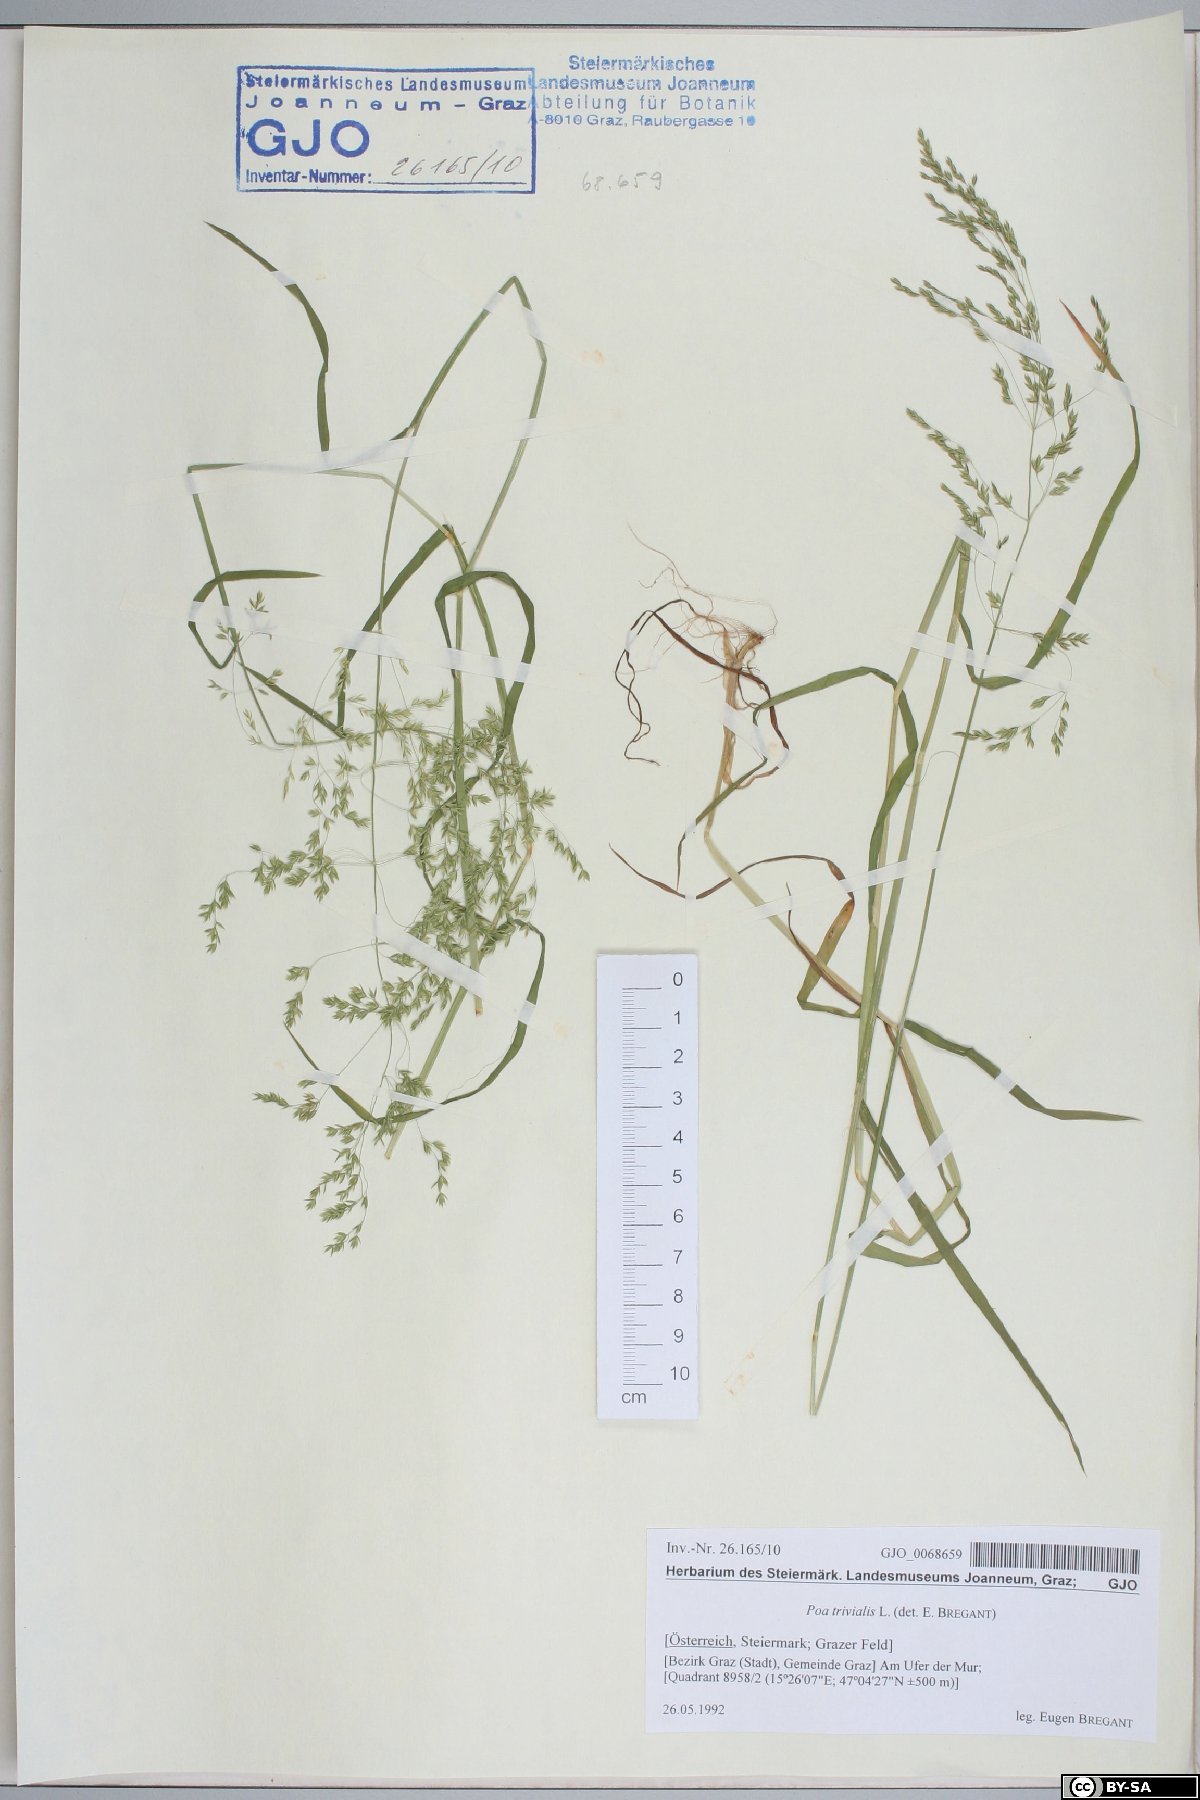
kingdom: Plantae
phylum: Tracheophyta
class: Liliopsida
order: Poales
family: Poaceae
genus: Poa
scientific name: Poa trivialis
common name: Rough bluegrass
